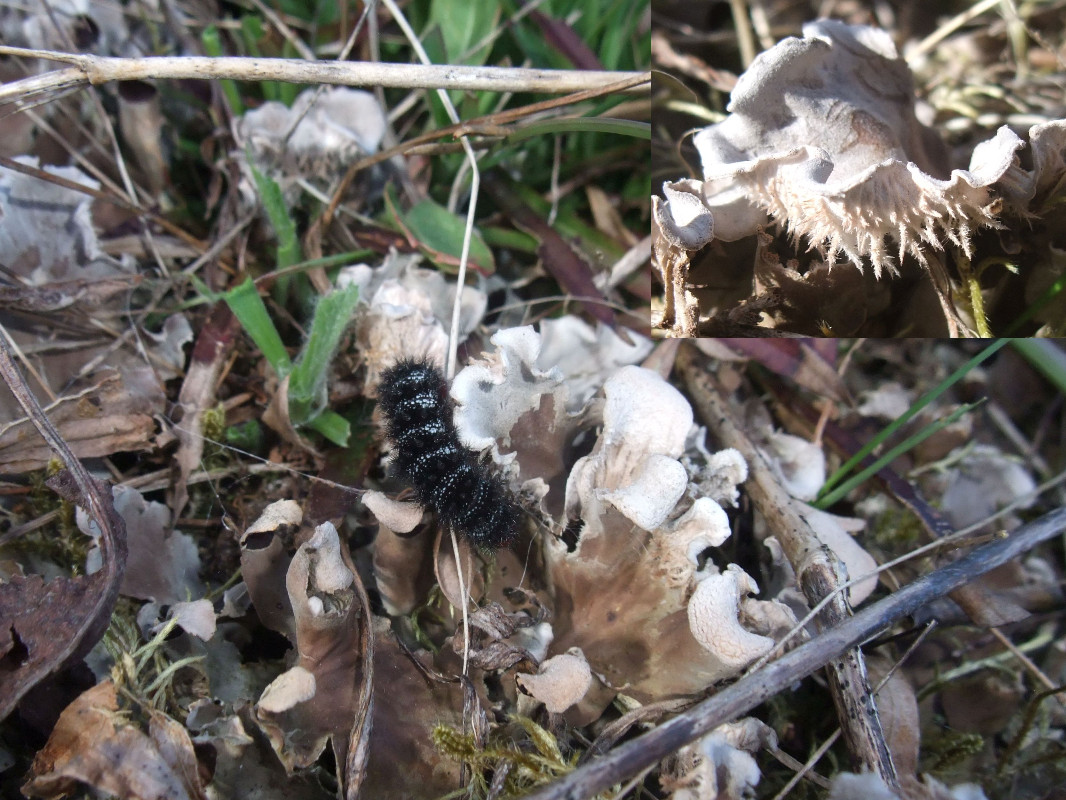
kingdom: Fungi
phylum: Ascomycota
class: Lecanoromycetes
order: Peltigerales
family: Peltigeraceae
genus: Peltigera
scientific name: Peltigera canina
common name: hunde-skjoldlav
